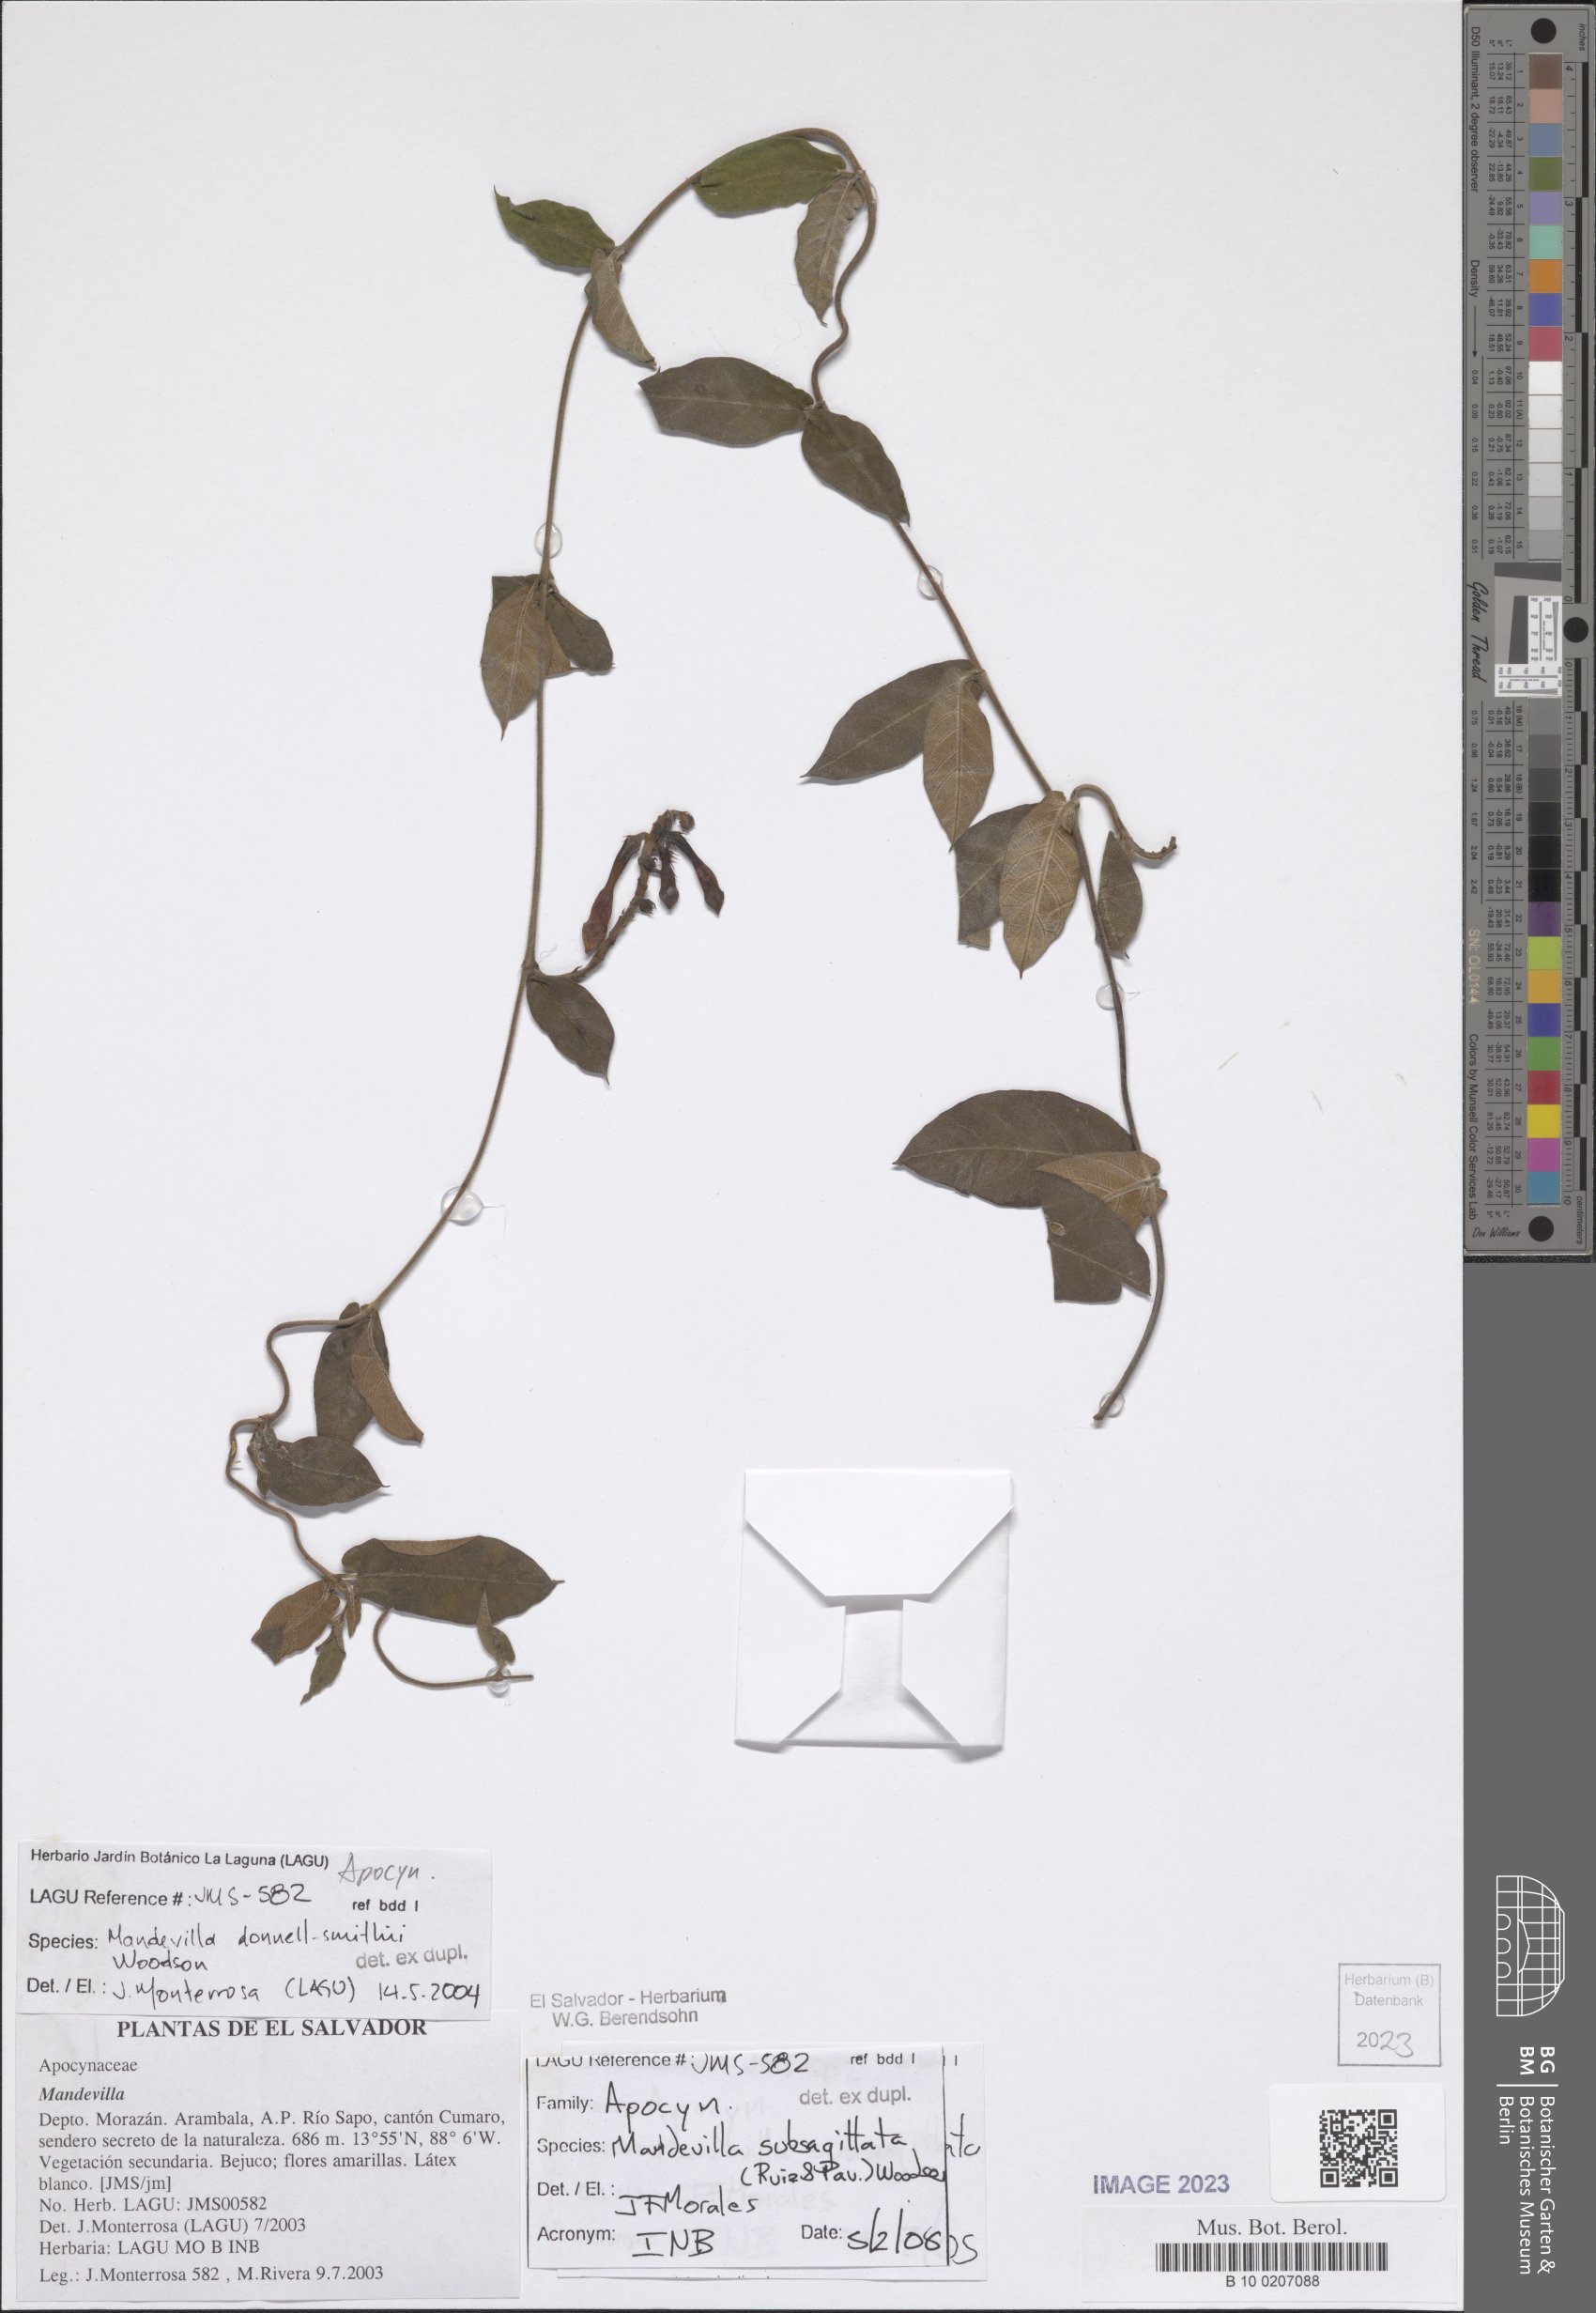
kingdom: Plantae
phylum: Tracheophyta
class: Magnoliopsida
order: Gentianales
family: Apocynaceae
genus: Mandevilla
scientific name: Mandevilla subsagittata
